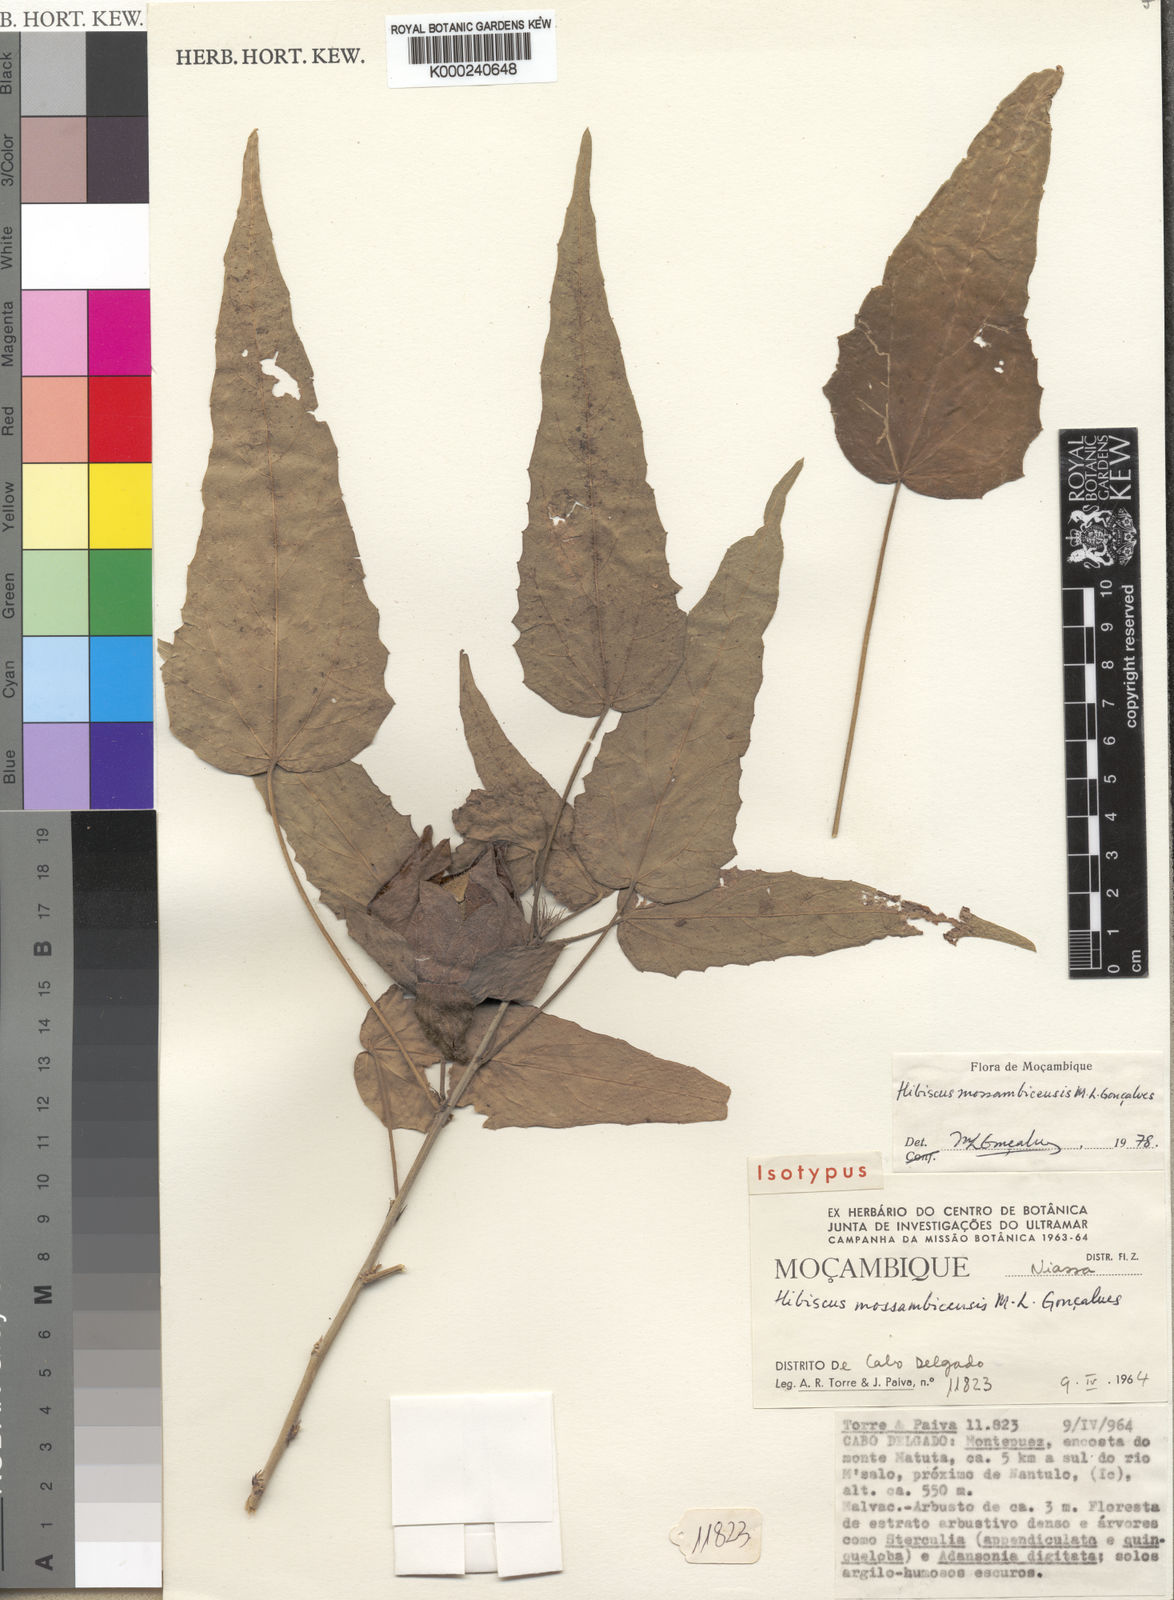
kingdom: Plantae
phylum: Tracheophyta
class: Magnoliopsida
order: Malvales
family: Malvaceae
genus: Hibiscus
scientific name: Hibiscus
